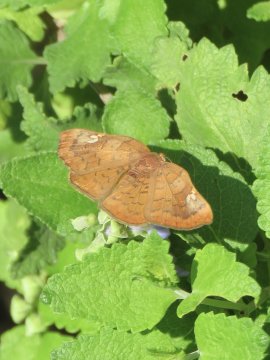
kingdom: Animalia
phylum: Arthropoda
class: Insecta
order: Lepidoptera
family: Lycaenidae
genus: Emesis
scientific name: Emesis emesia
